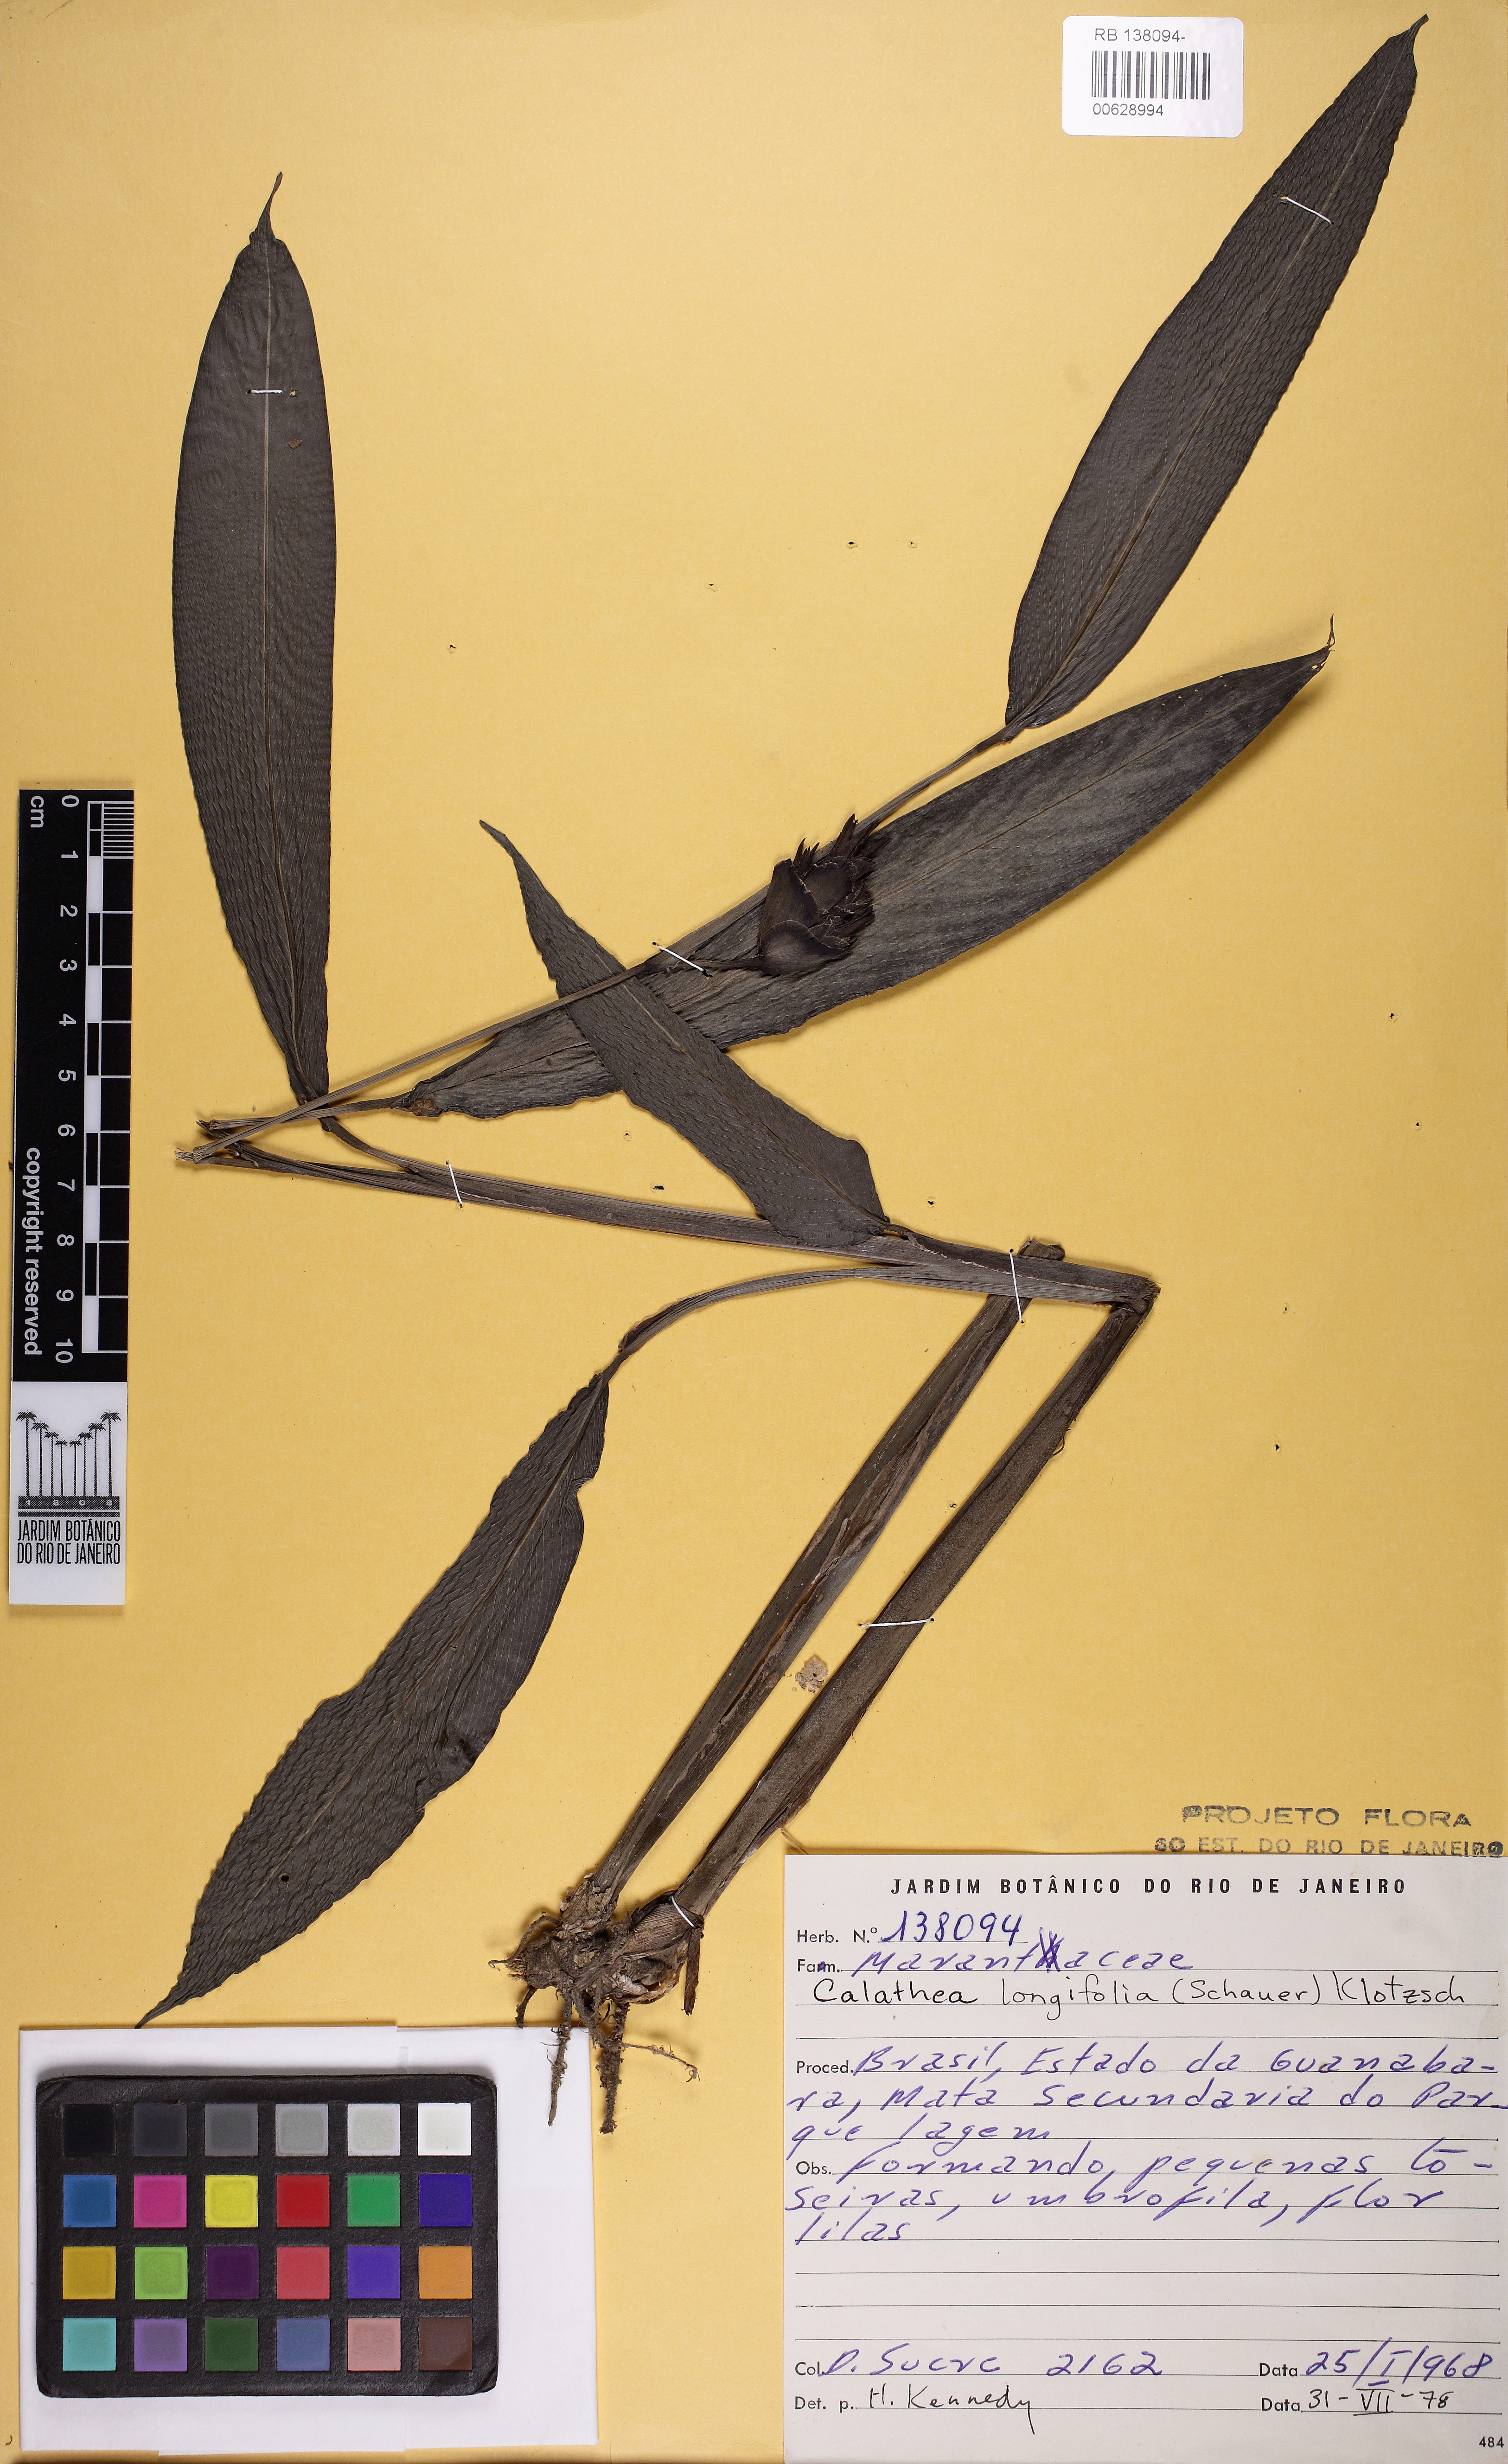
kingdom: Plantae
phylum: Tracheophyta
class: Liliopsida
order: Zingiberales
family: Marantaceae
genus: Goeppertia
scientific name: Goeppertia macilenta
